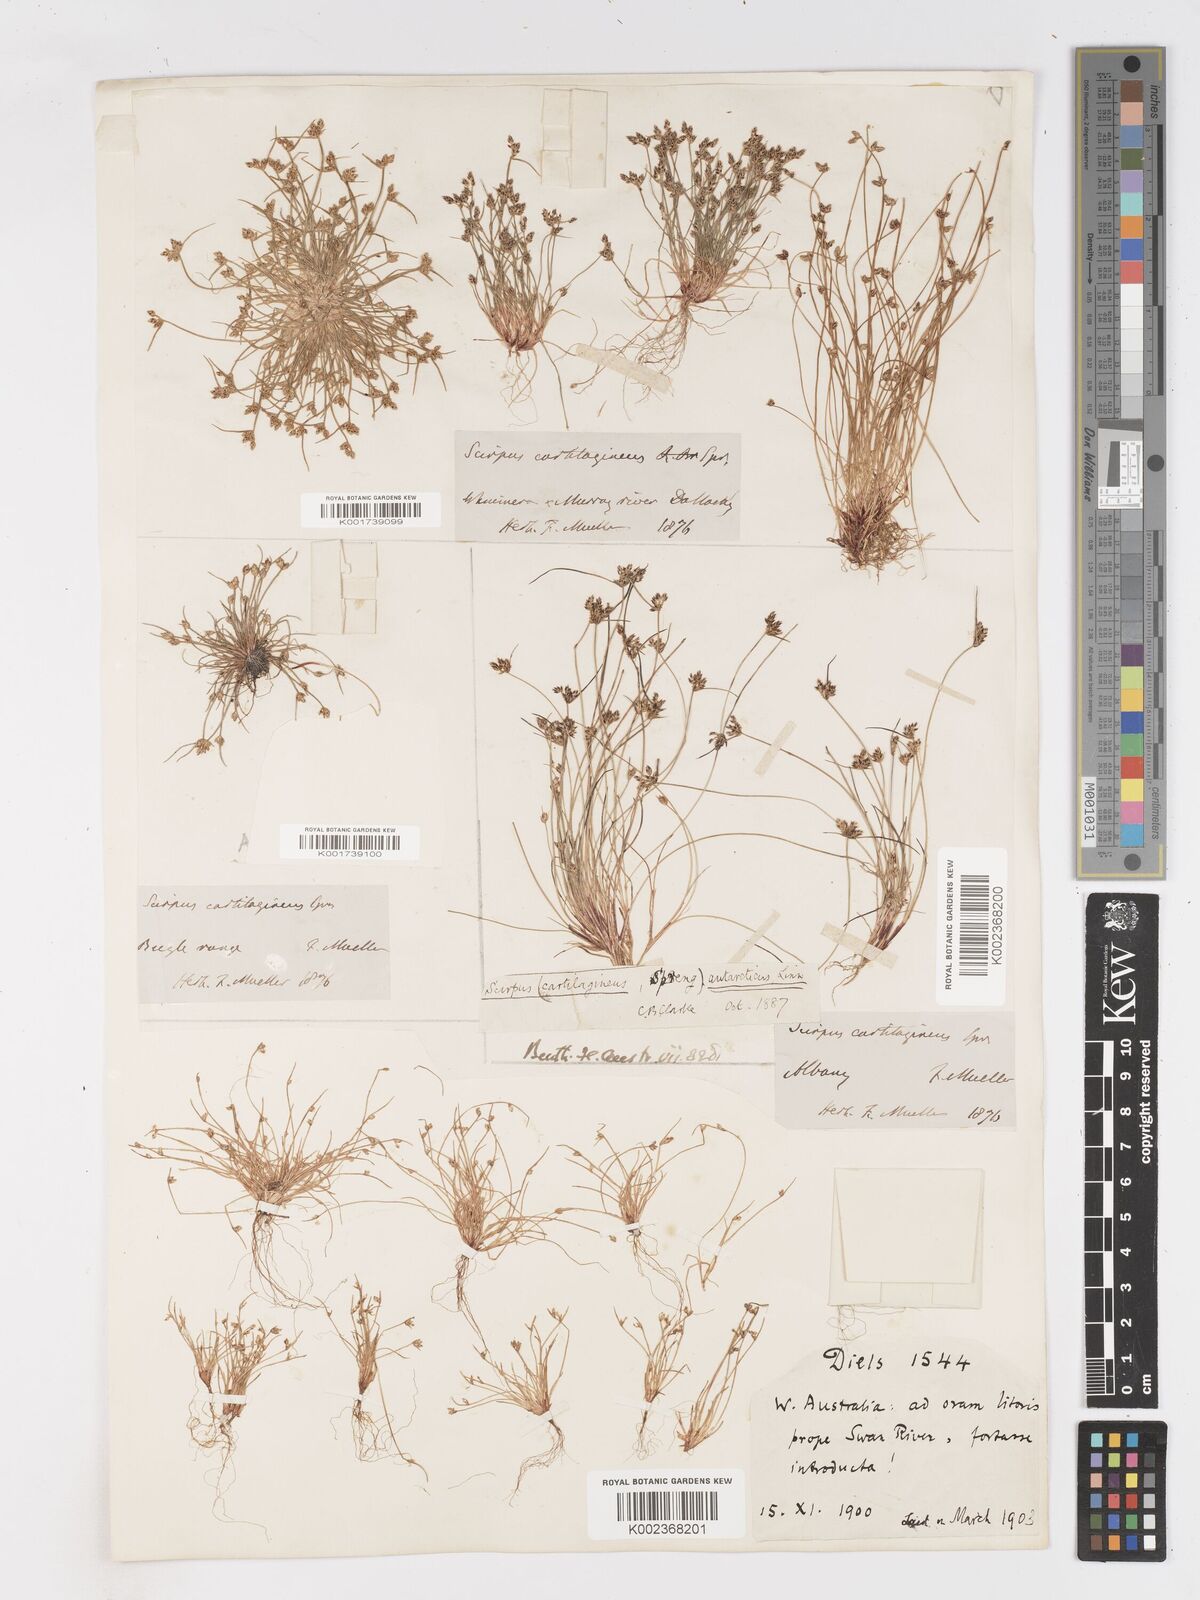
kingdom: Plantae
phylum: Tracheophyta
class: Liliopsida
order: Poales
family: Cyperaceae
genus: Isolepis
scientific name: Isolepis antarctica
